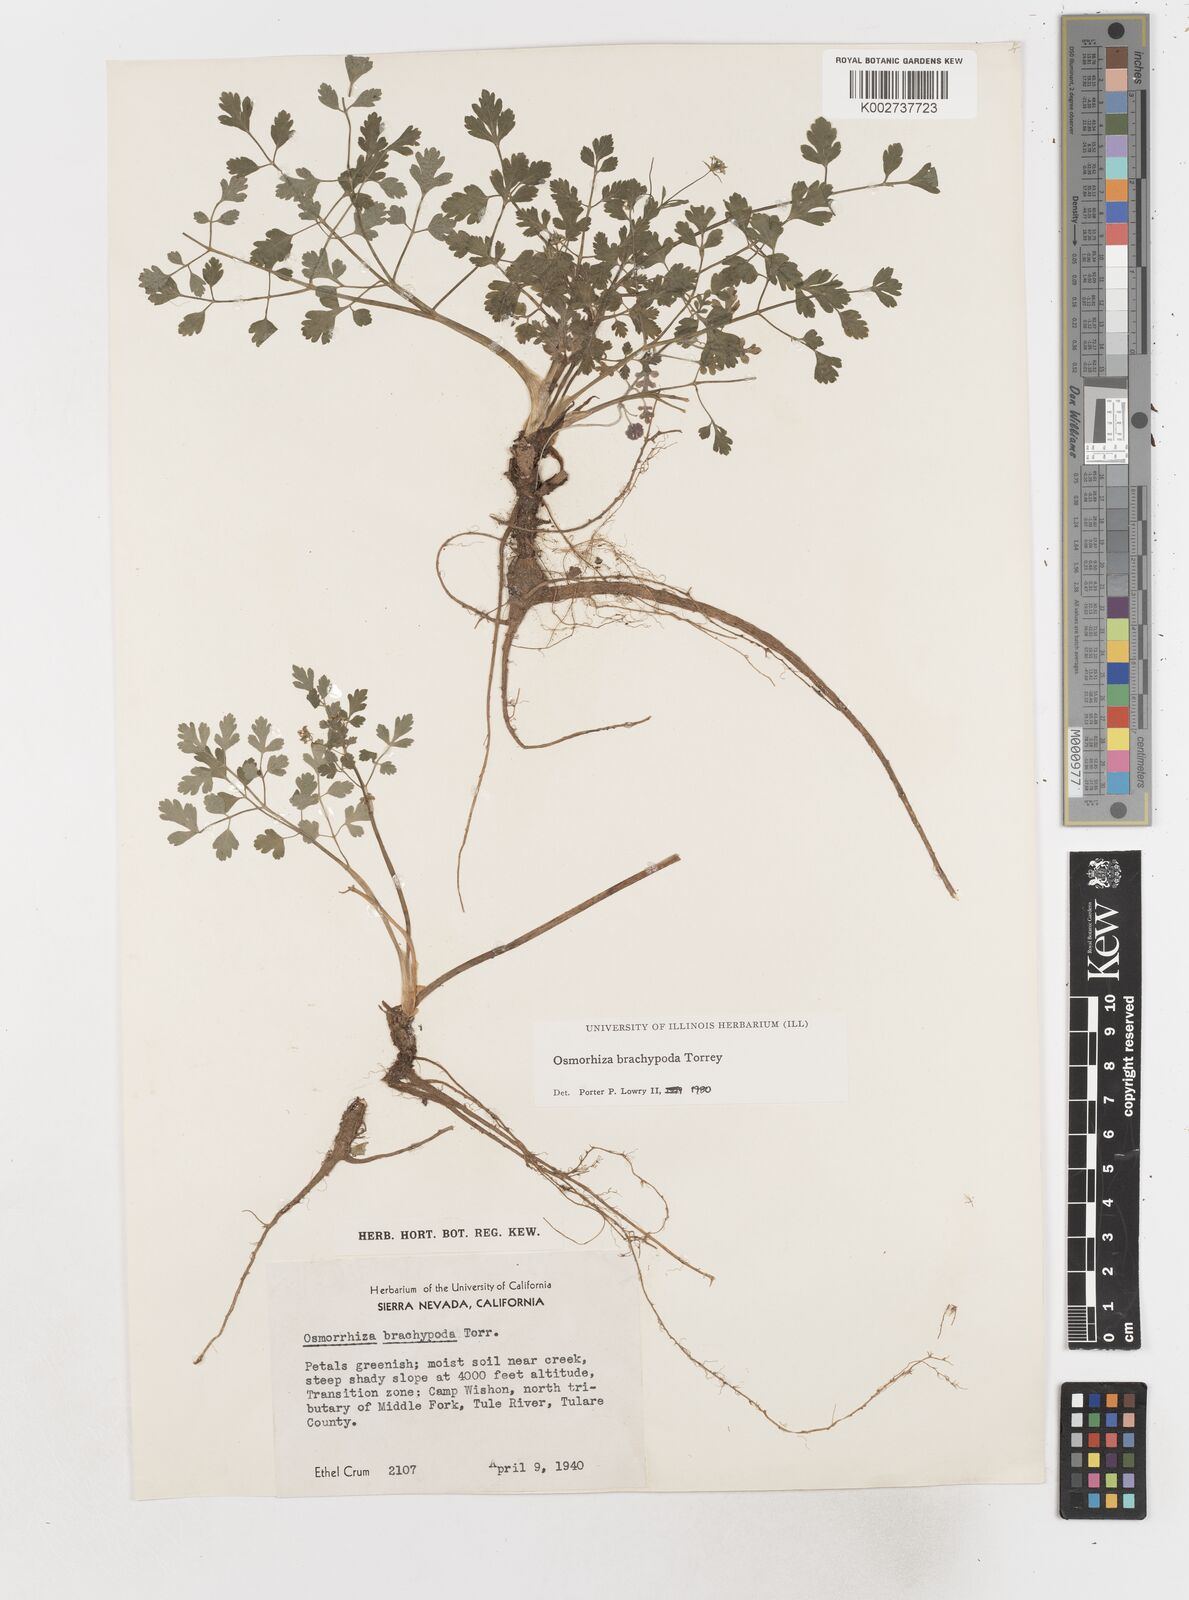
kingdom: Plantae
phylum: Tracheophyta
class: Magnoliopsida
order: Apiales
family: Apiaceae
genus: Osmorhiza
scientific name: Osmorhiza brachypoda
